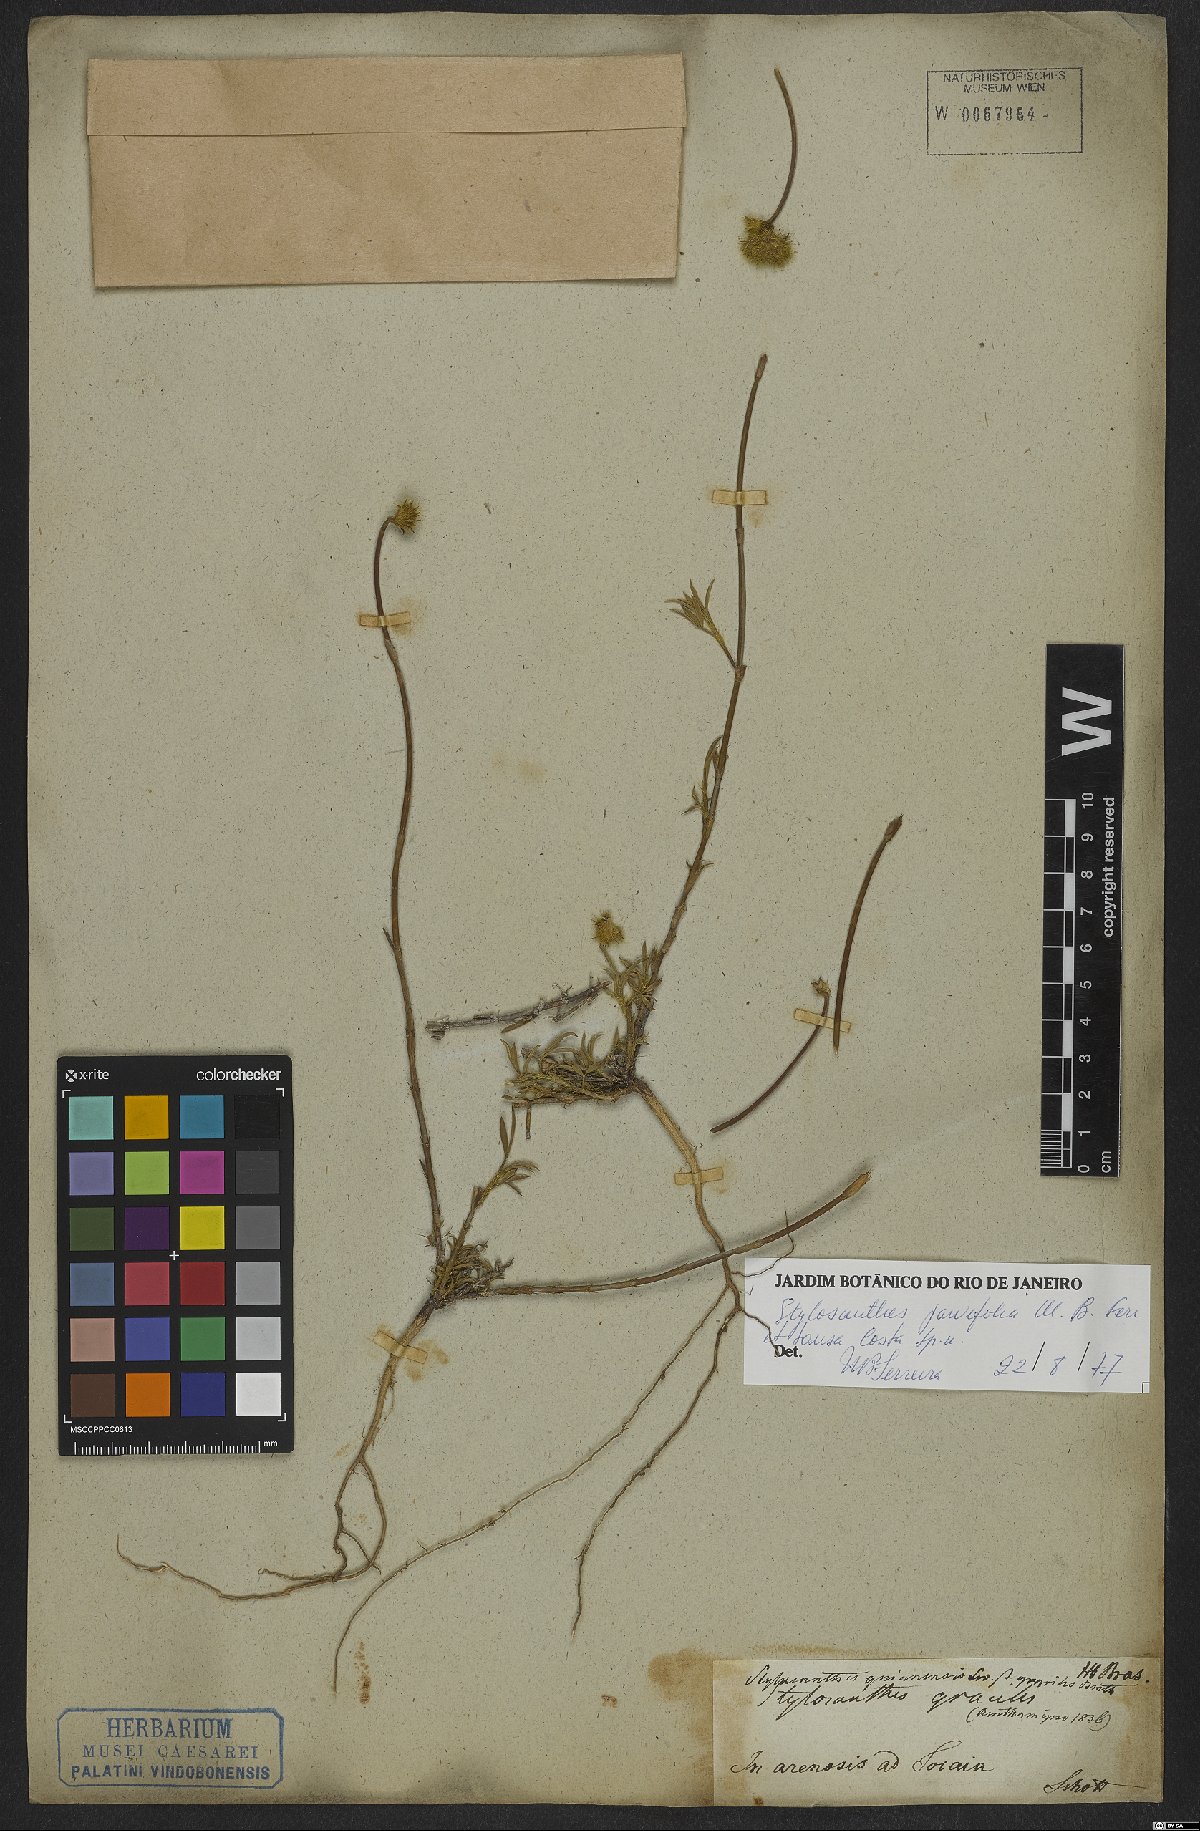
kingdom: Plantae
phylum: Tracheophyta
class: Magnoliopsida
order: Fabales
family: Fabaceae
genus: Stylosanthes
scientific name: Stylosanthes
